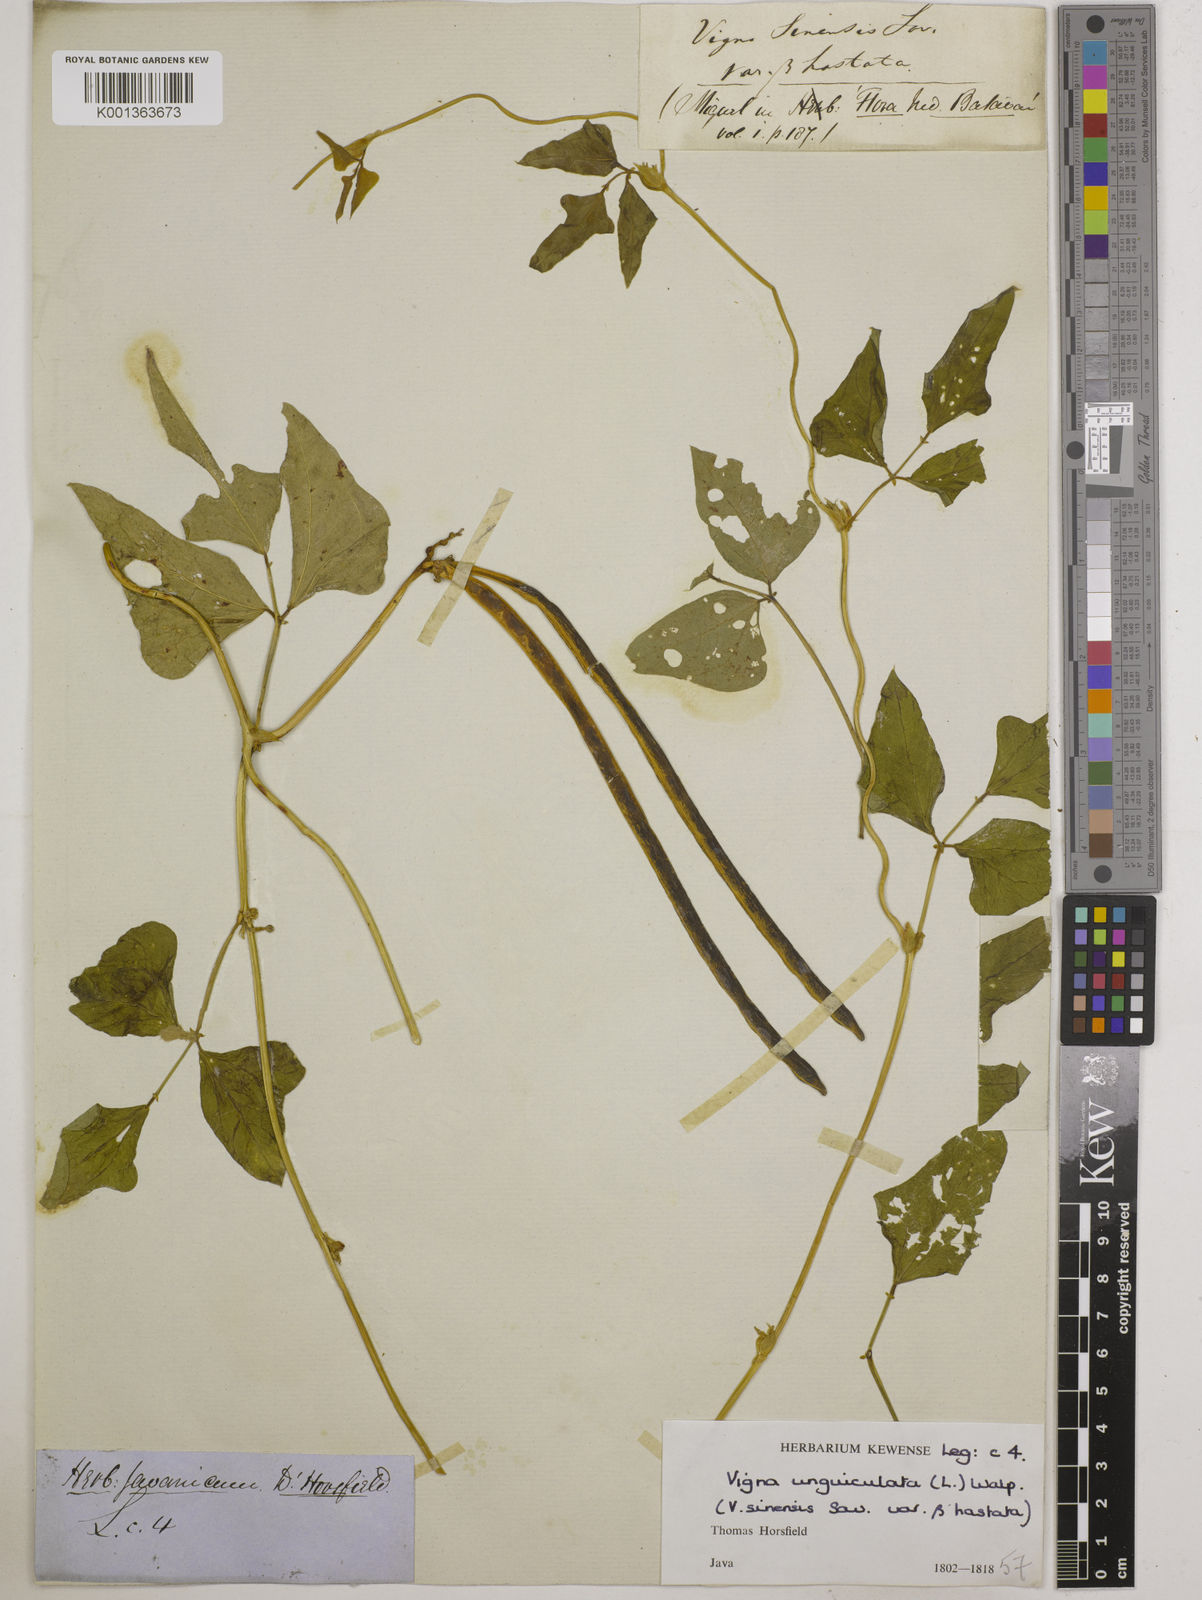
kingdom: Plantae
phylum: Tracheophyta
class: Magnoliopsida
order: Fabales
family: Fabaceae
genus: Vigna
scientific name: Vigna unguiculata
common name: Cowpea
